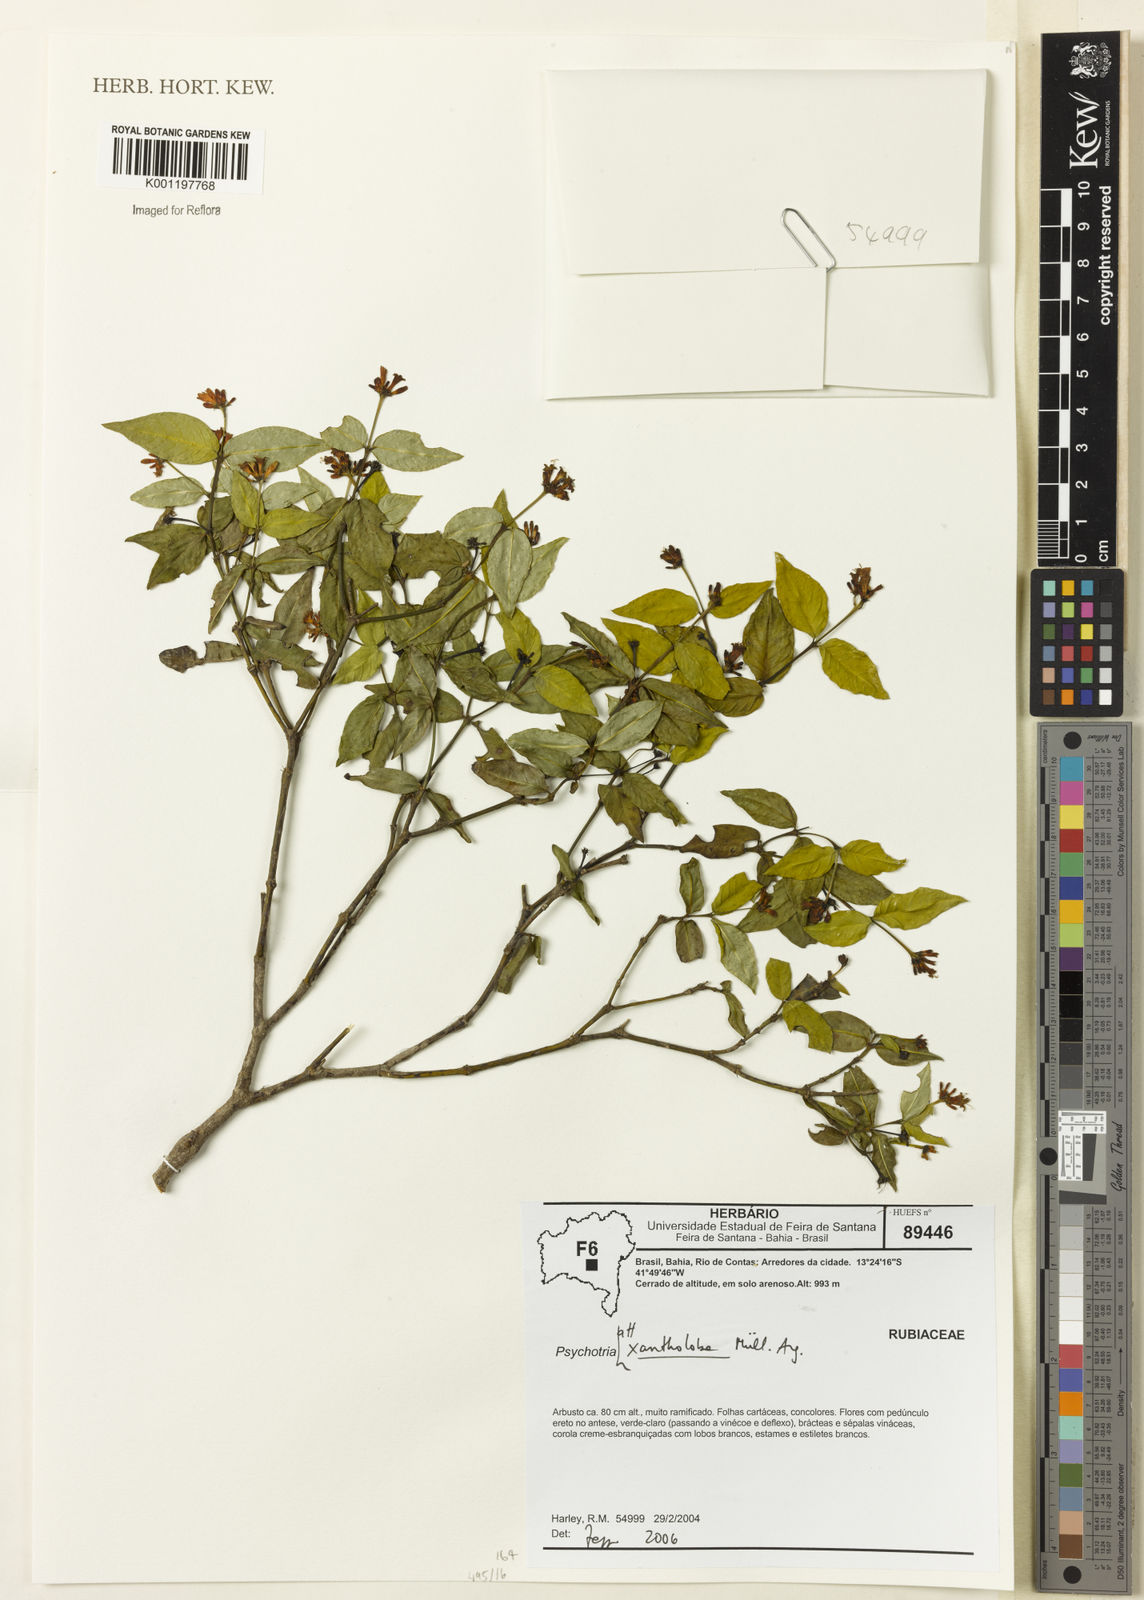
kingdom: Plantae
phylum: Tracheophyta
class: Magnoliopsida
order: Gentianales
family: Rubiaceae
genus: Psychotria
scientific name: Psychotria
